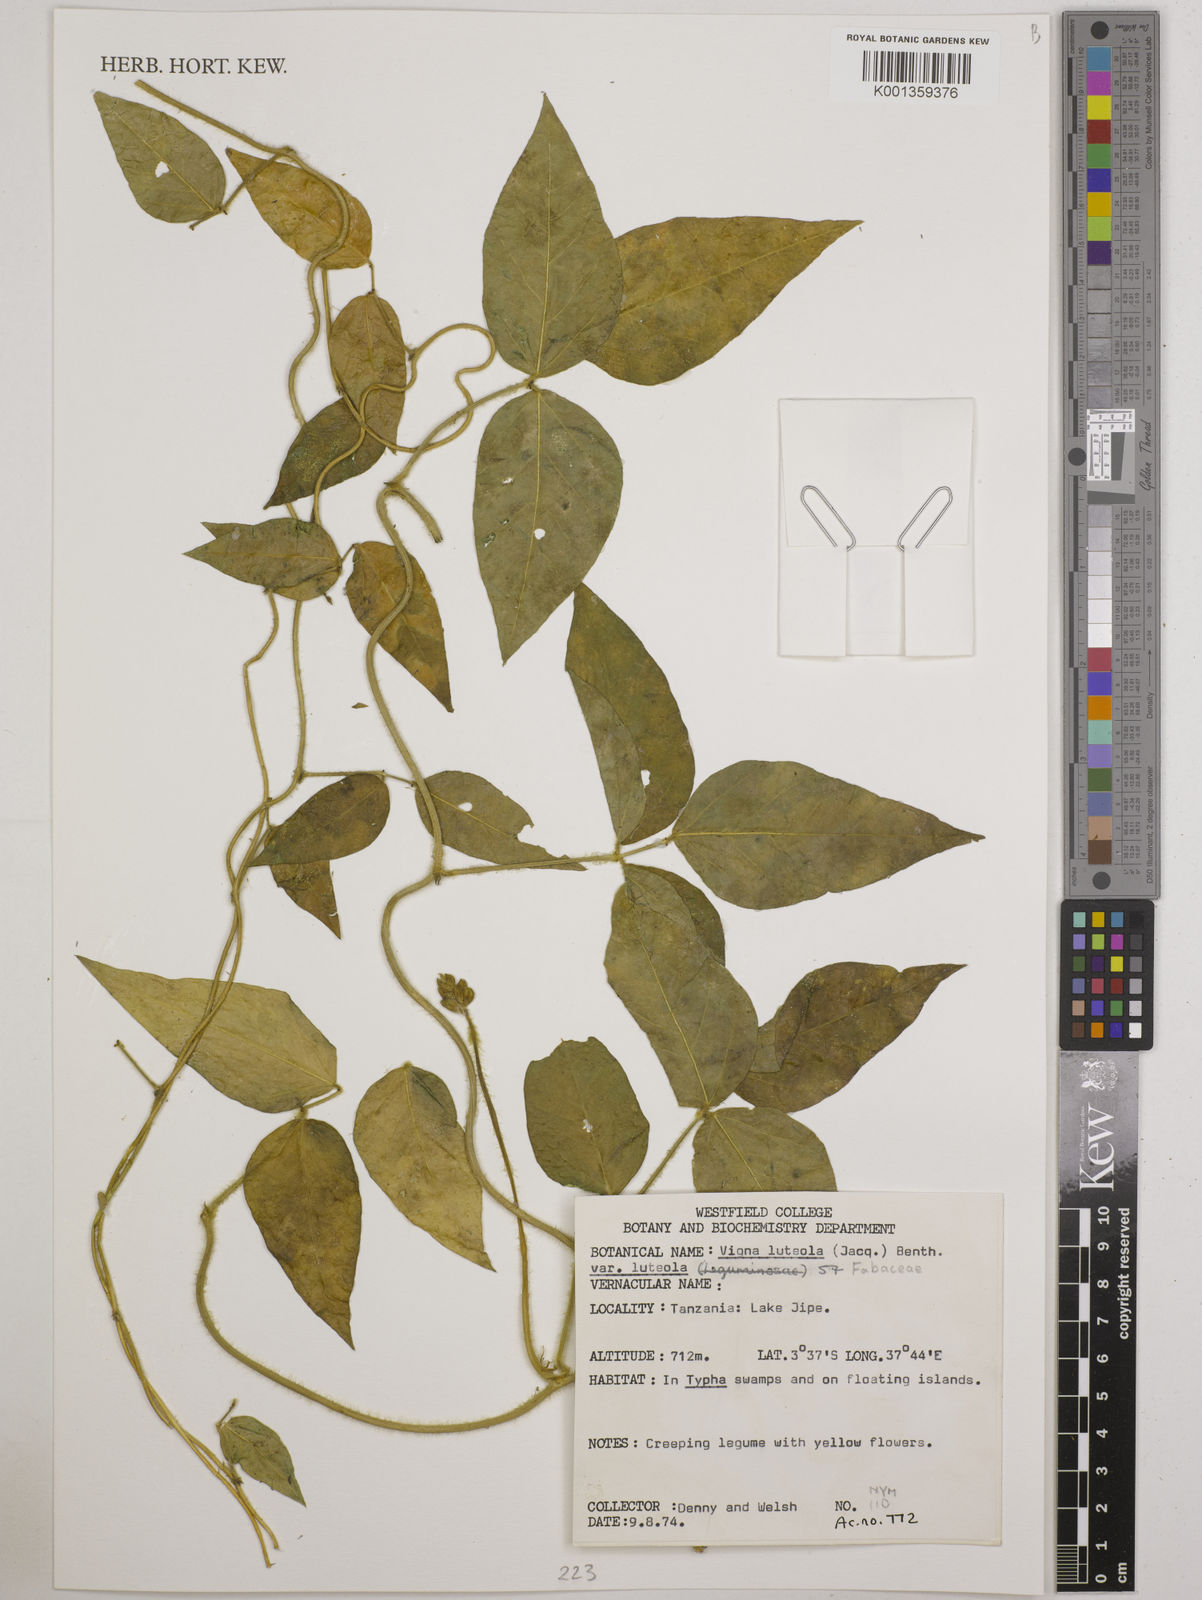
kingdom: Plantae
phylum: Tracheophyta
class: Magnoliopsida
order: Fabales
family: Fabaceae
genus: Vigna
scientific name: Vigna luteola
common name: Hairypod cowpea
